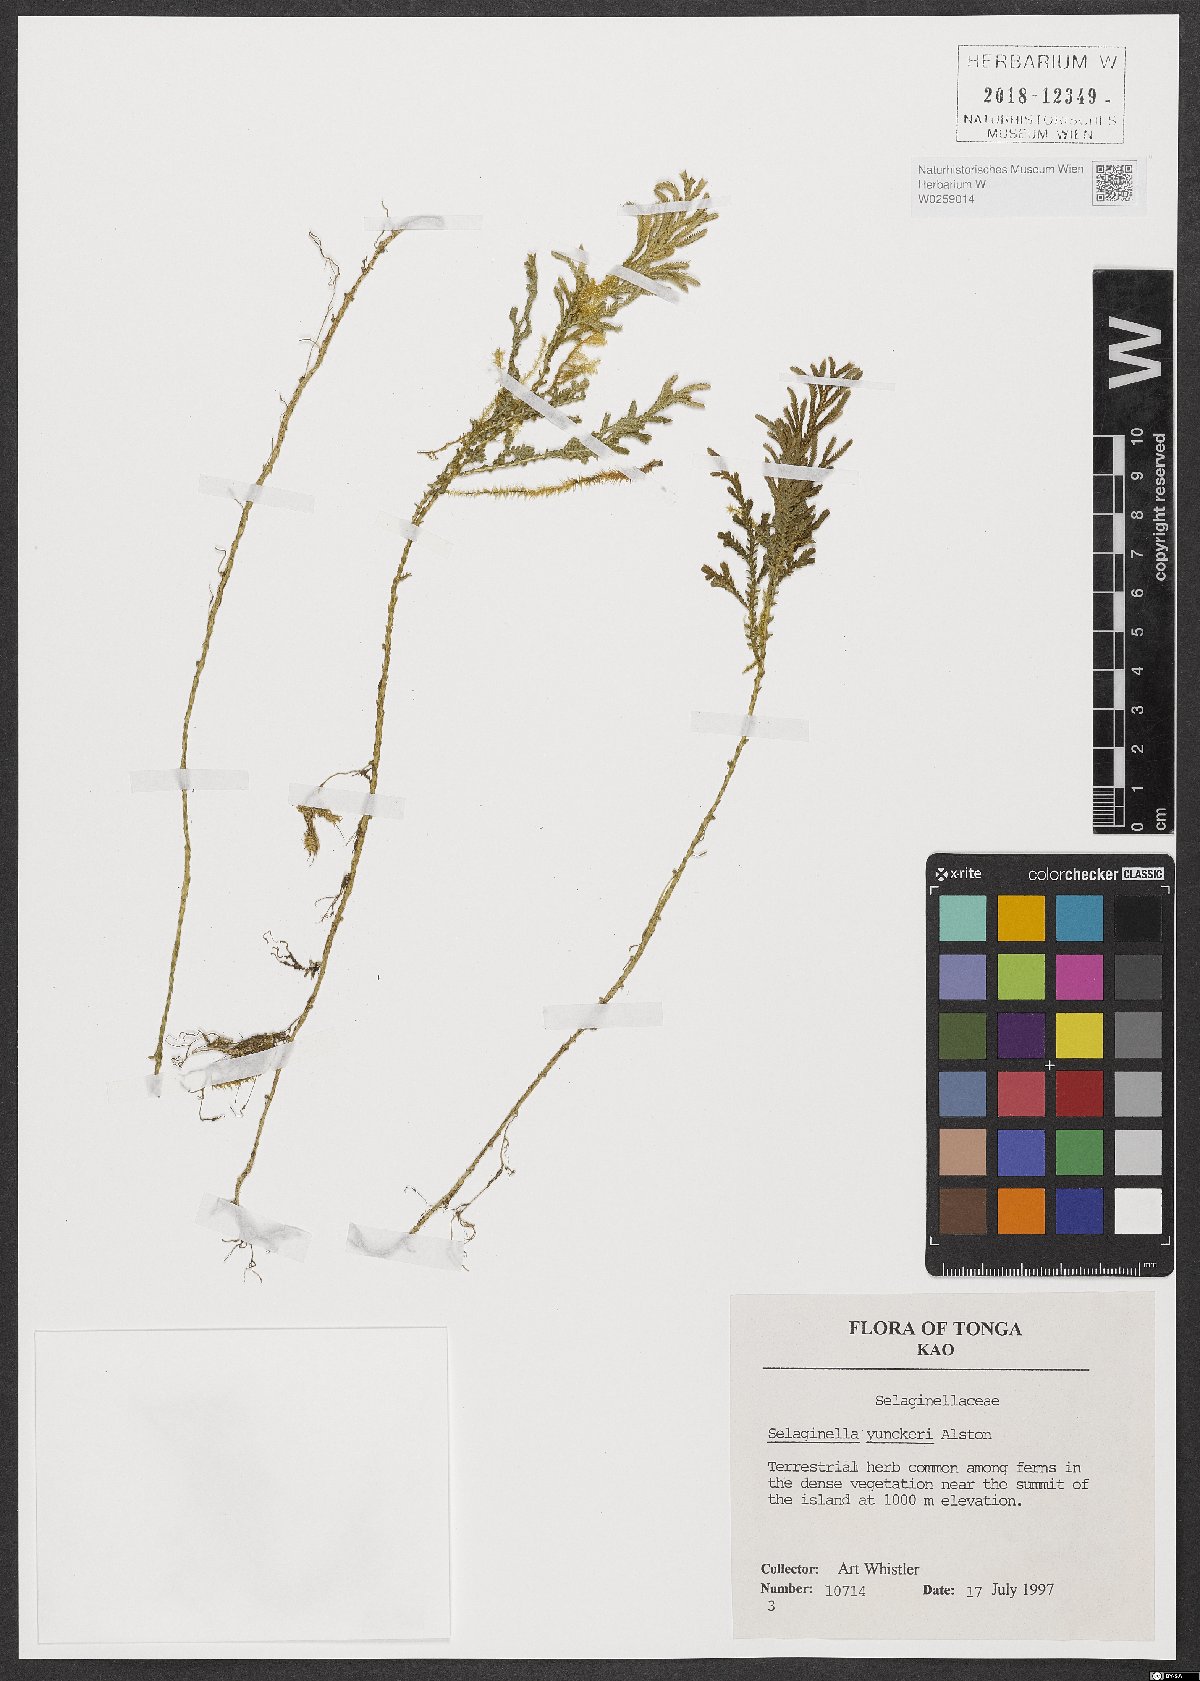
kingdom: Plantae
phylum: Tracheophyta
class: Lycopodiopsida
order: Selaginellales
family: Selaginellaceae
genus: Selaginella
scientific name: Selaginella yunckeri
